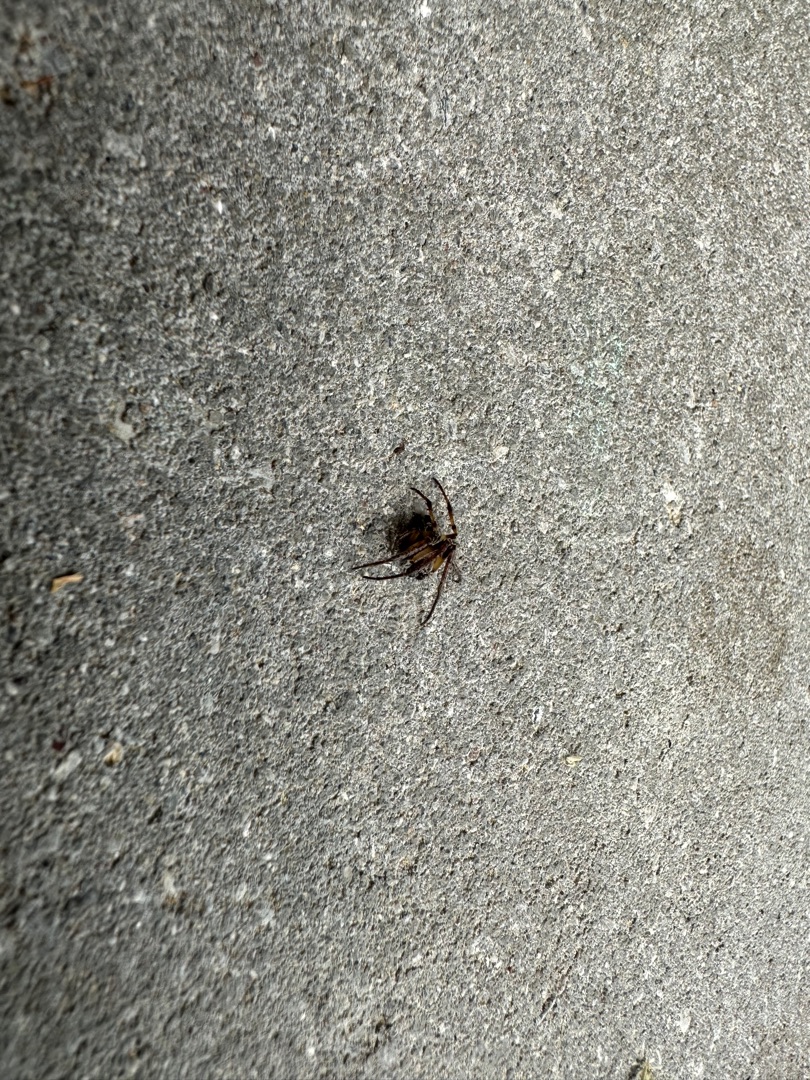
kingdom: Animalia
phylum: Arthropoda
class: Arachnida
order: Araneae
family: Araneidae
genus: Larinioides
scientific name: Larinioides sclopetarius
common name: Bolværksedderkop
